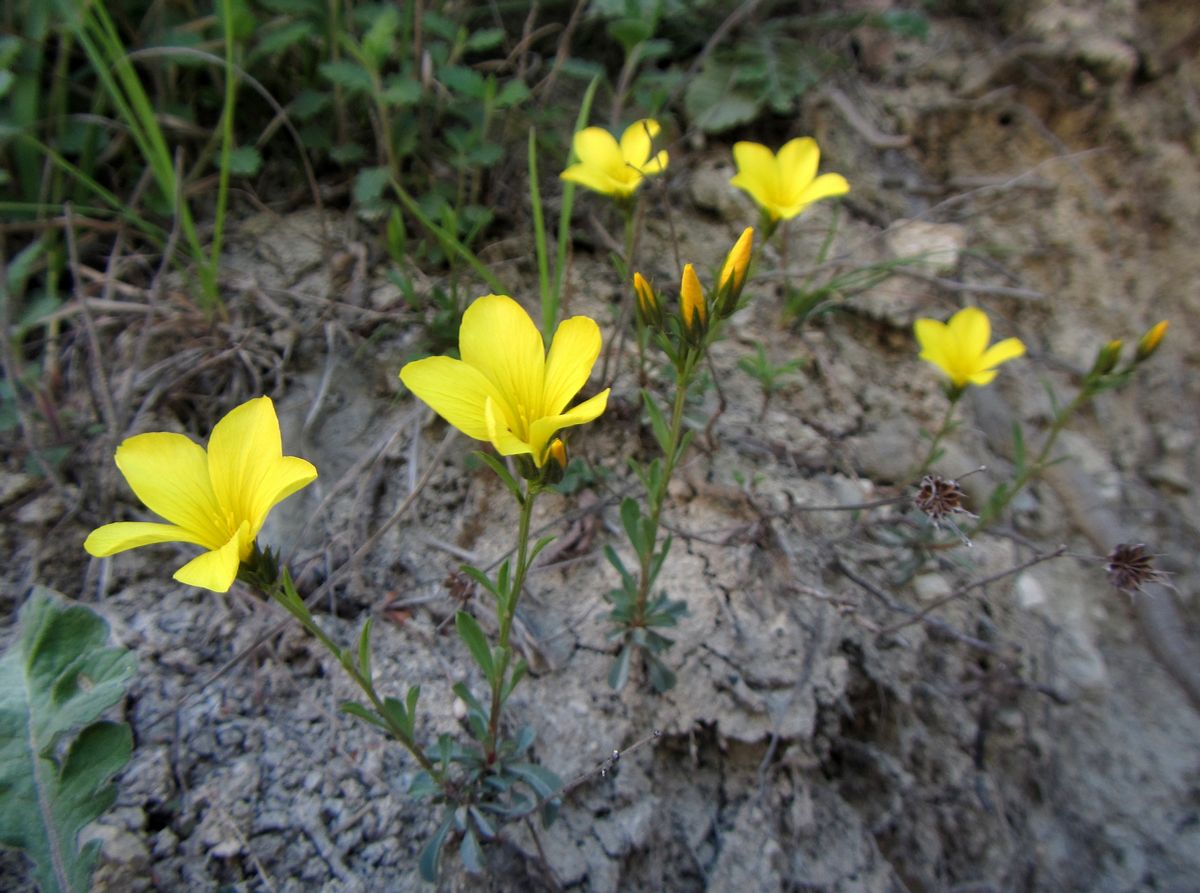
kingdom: Plantae
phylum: Tracheophyta
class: Magnoliopsida
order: Malpighiales
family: Linaceae
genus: Linum
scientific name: Linum nodiflorum
